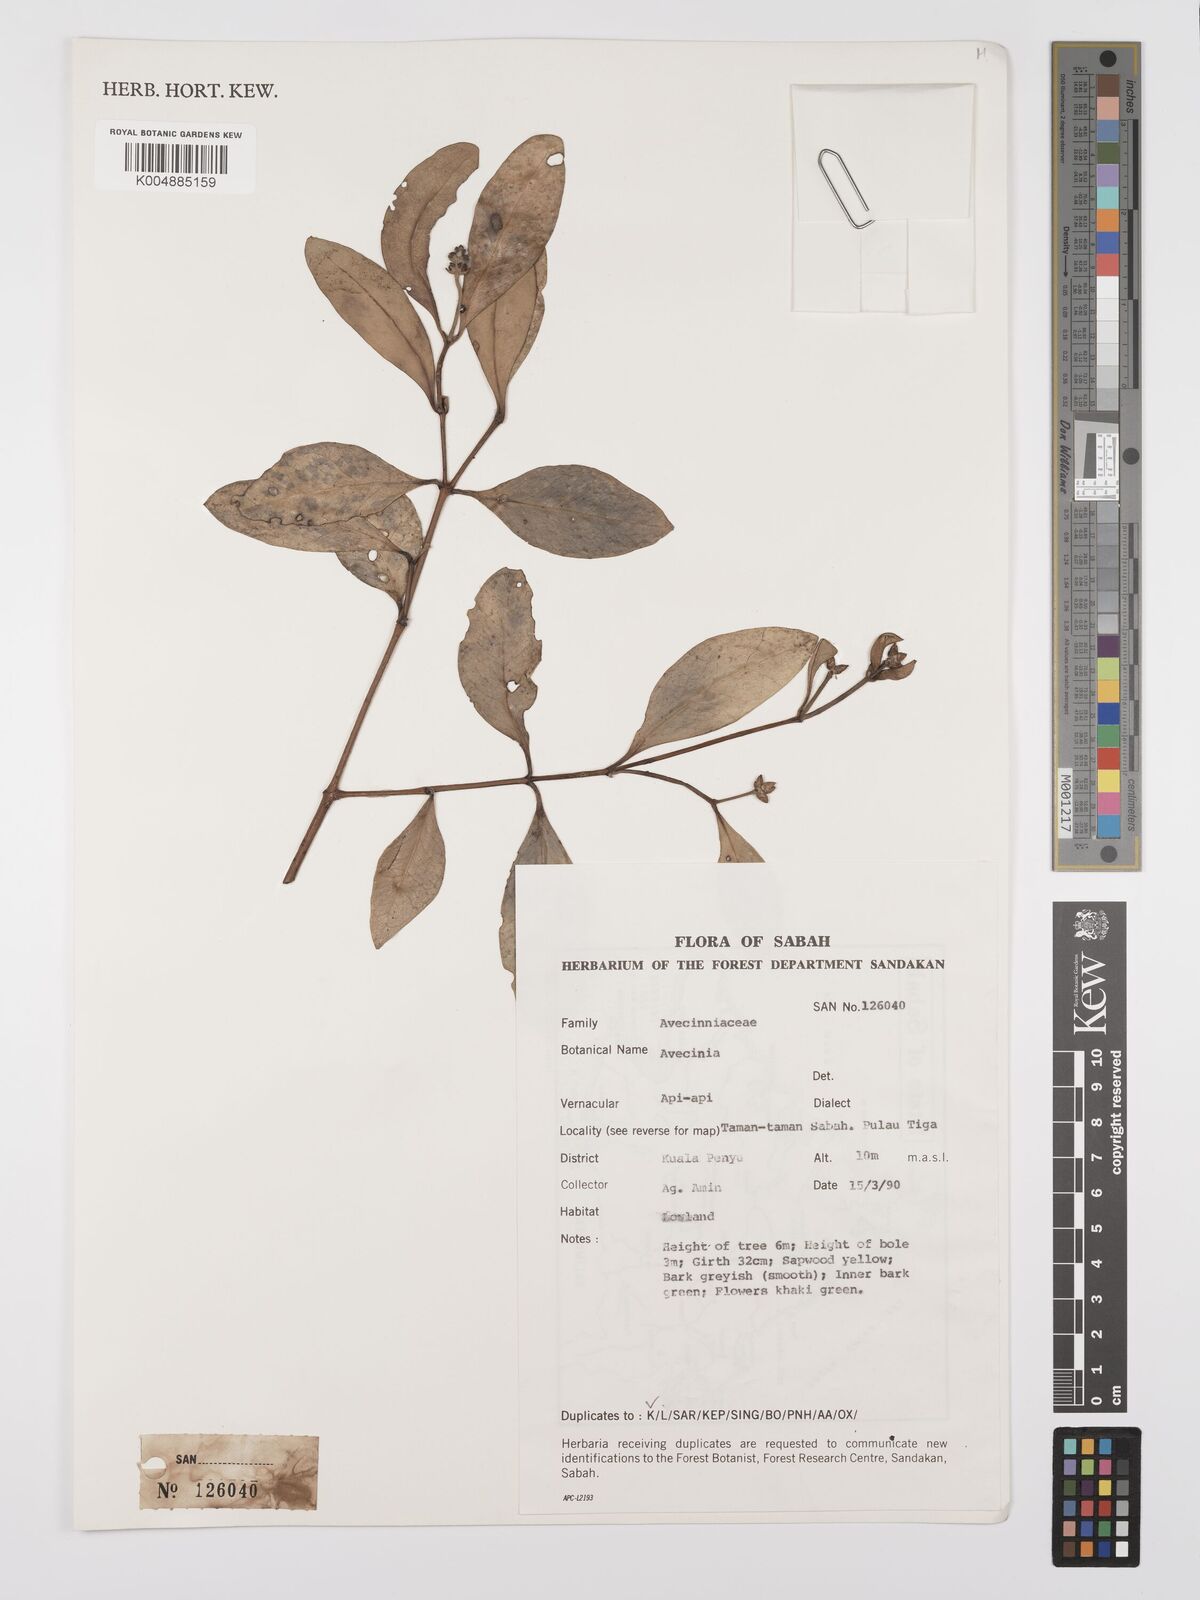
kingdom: Plantae
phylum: Tracheophyta
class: Magnoliopsida
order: Lamiales
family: Acanthaceae
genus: Avicennia
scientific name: Avicennia
